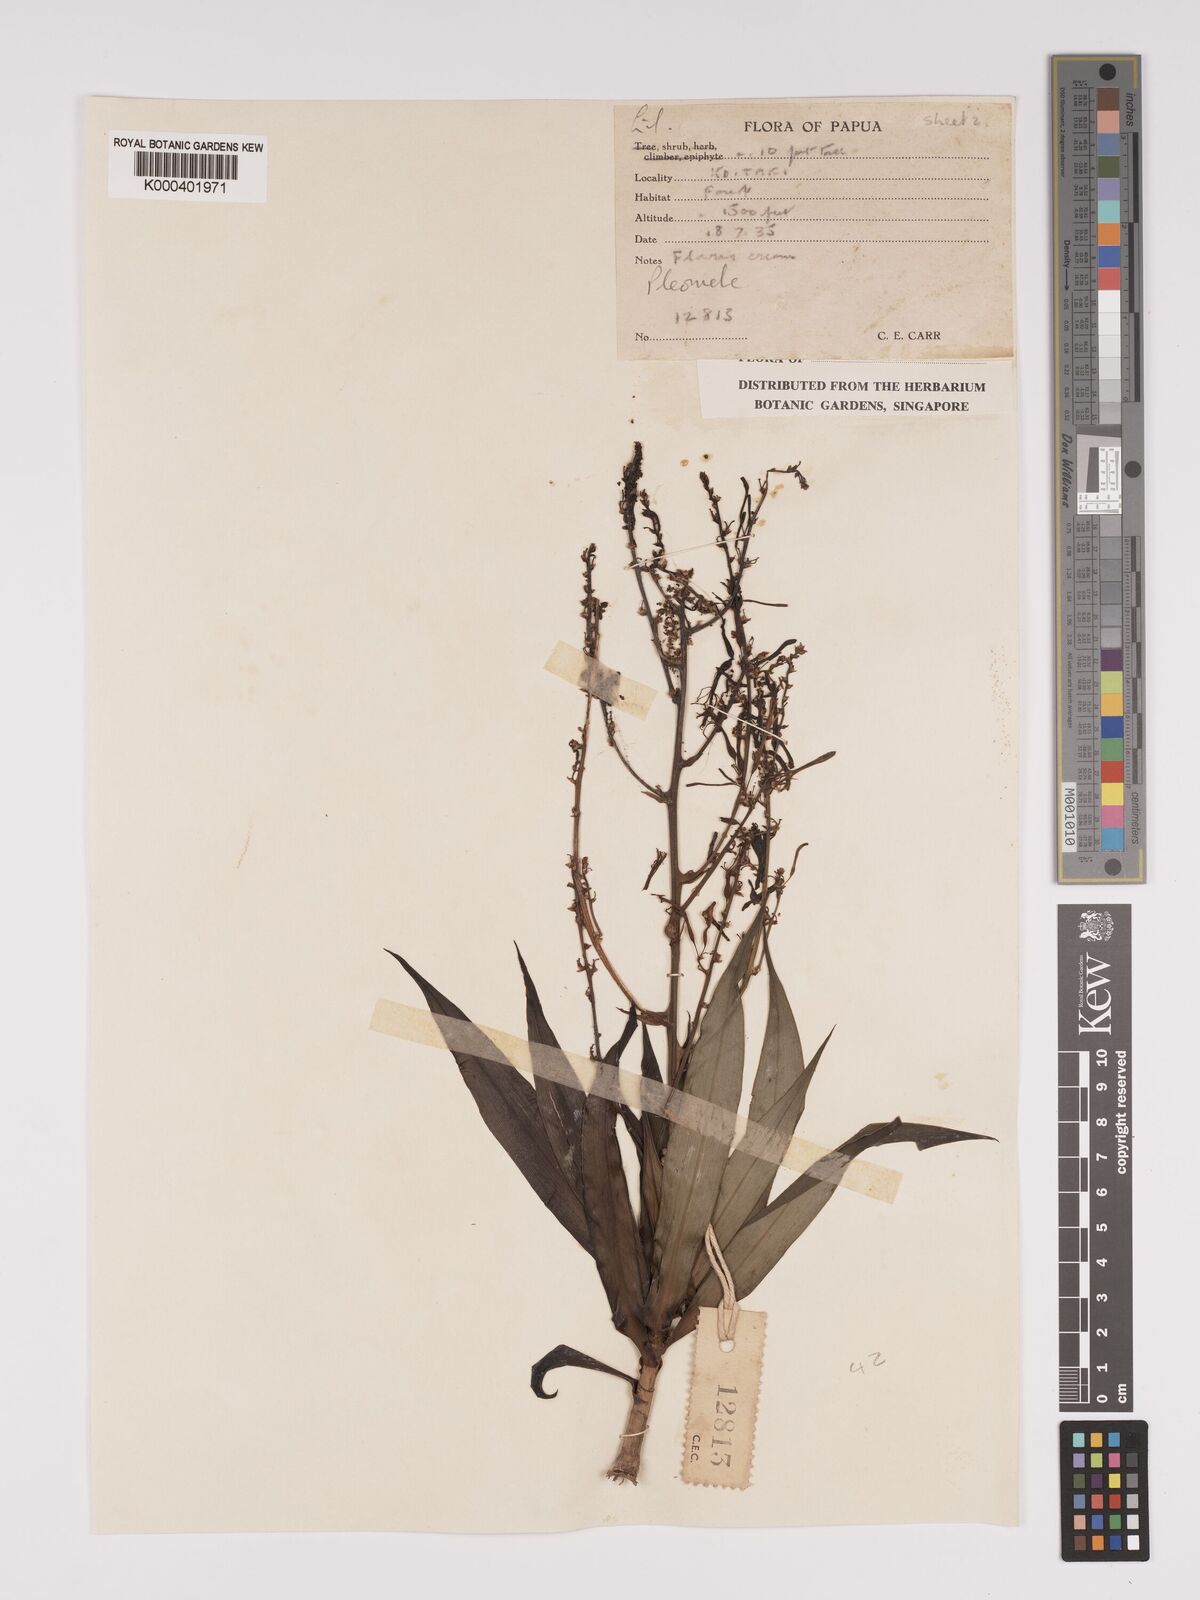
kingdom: Plantae
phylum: Tracheophyta
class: Liliopsida
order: Asparagales
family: Asparagaceae
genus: Dracaena
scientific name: Dracaena angustifolia
